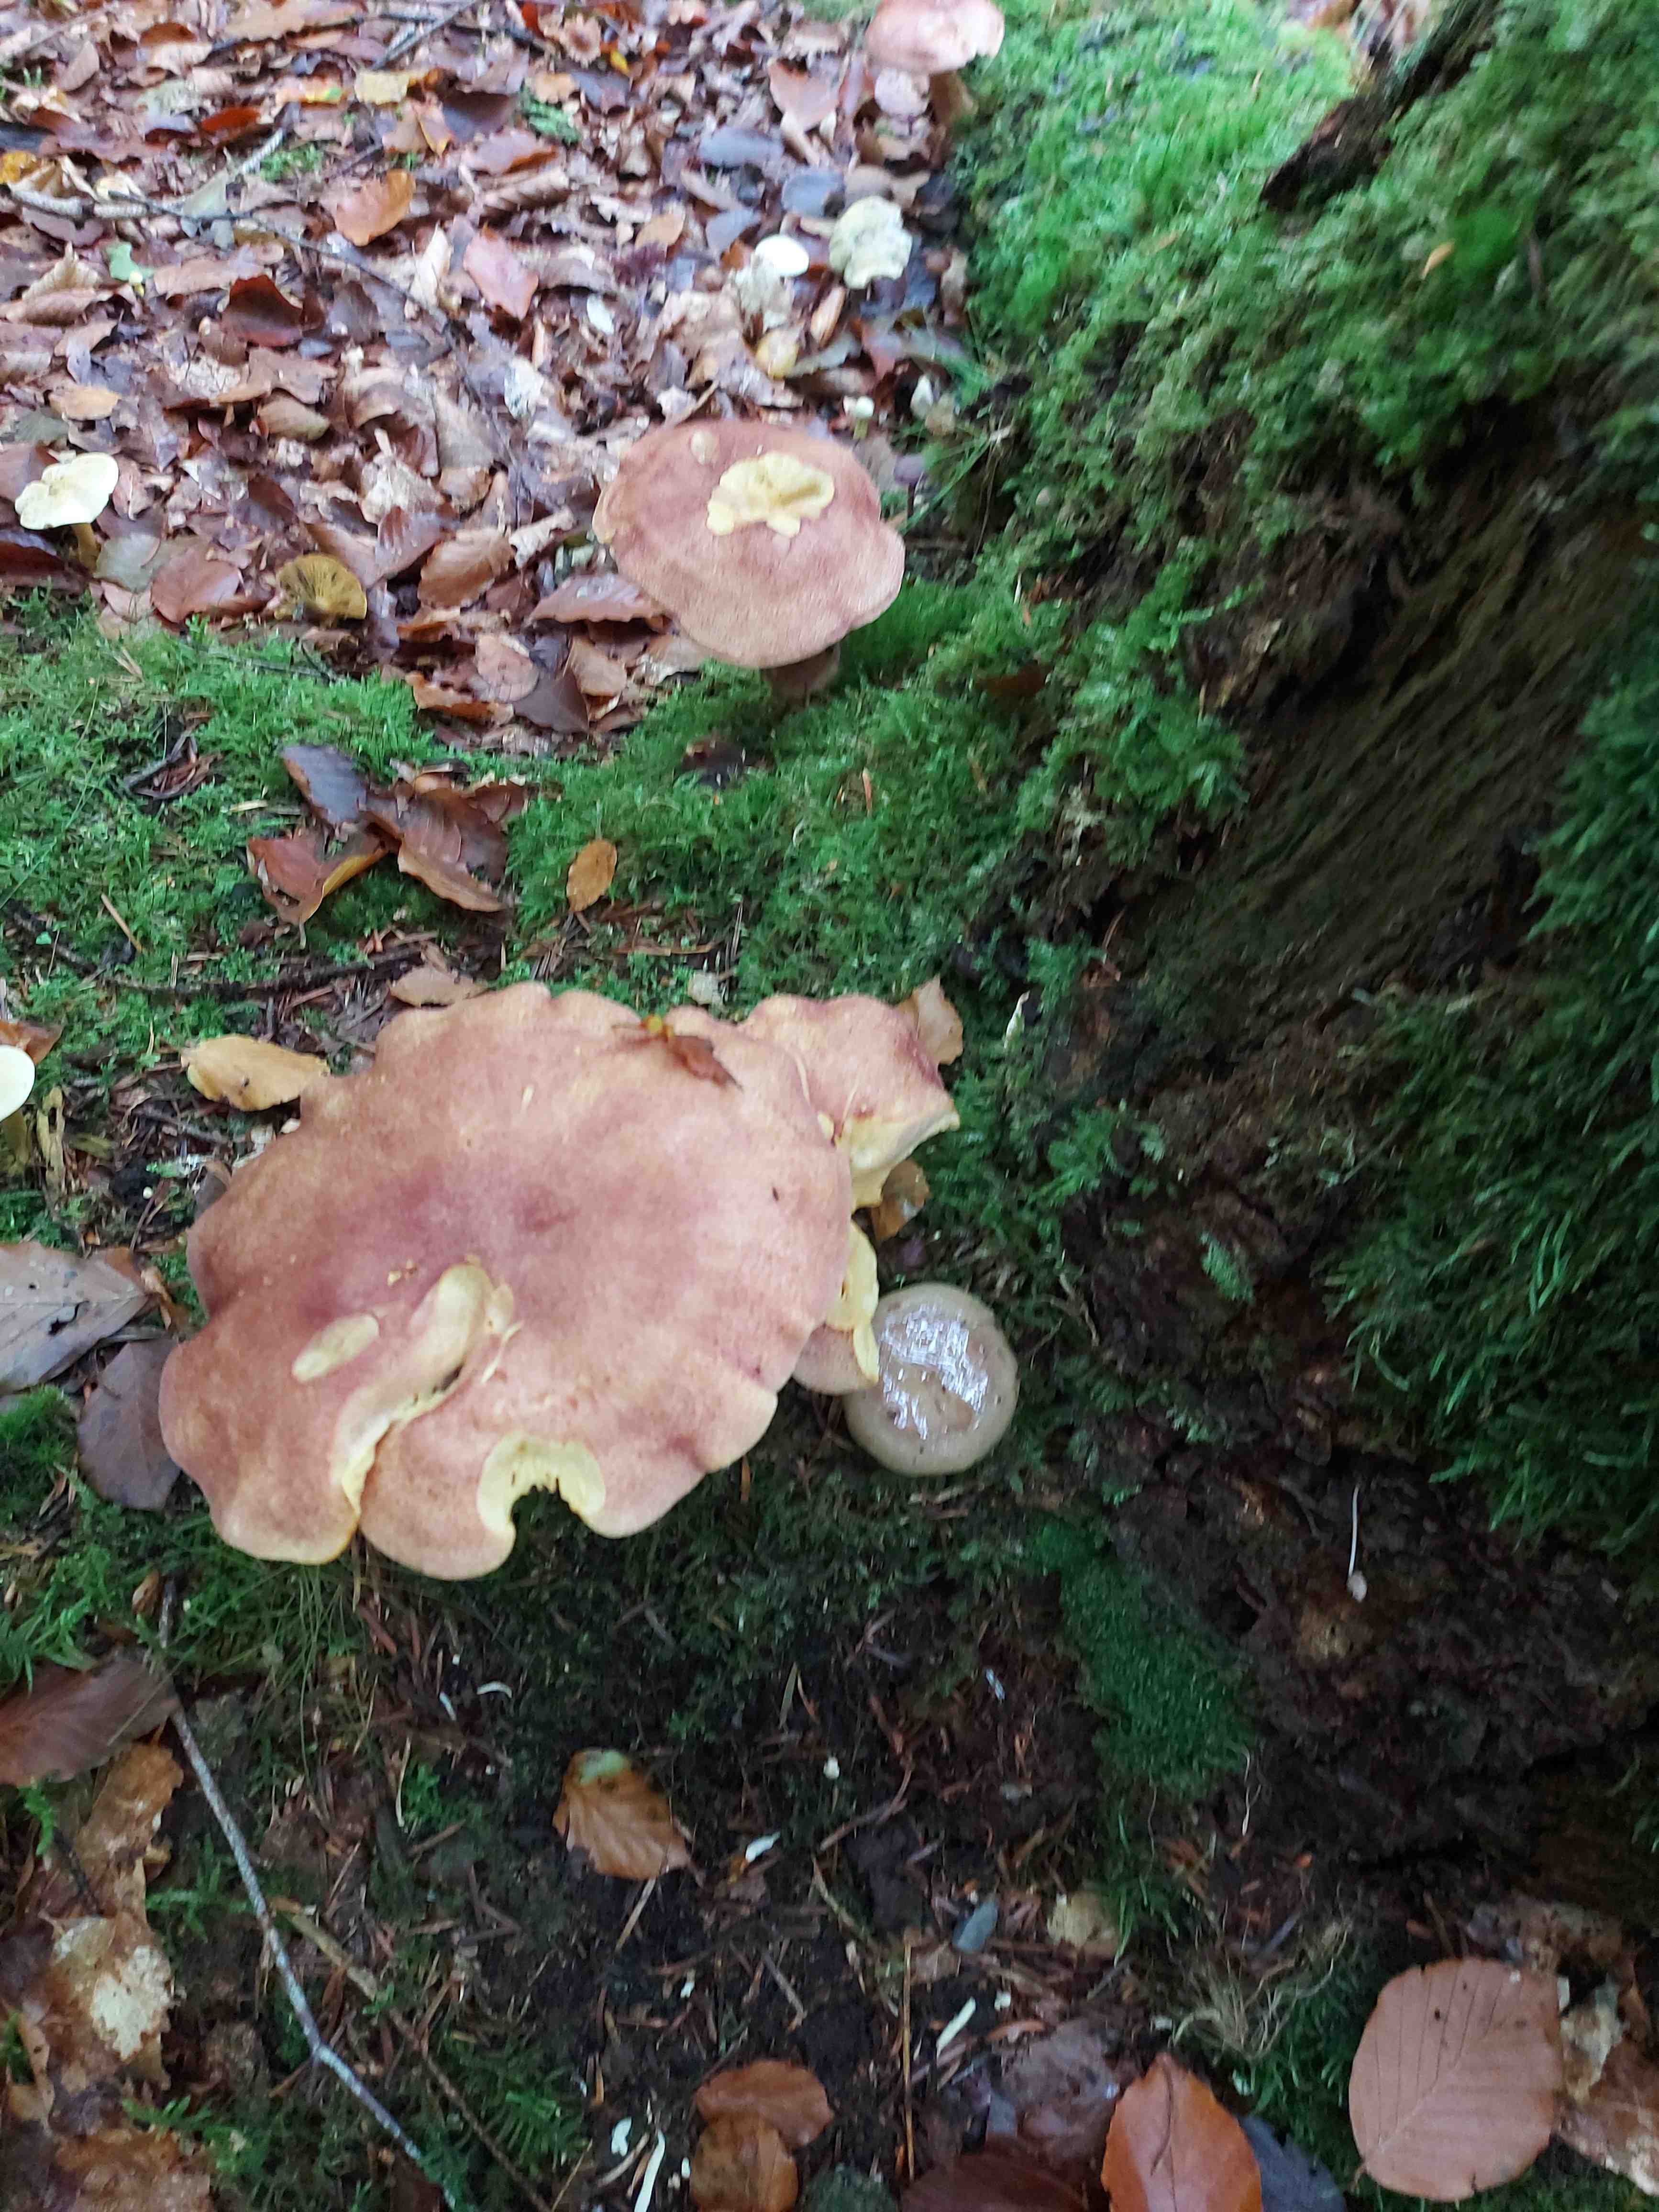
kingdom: Fungi
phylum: Basidiomycota
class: Agaricomycetes
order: Agaricales
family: Tricholomataceae
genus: Tricholomopsis
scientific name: Tricholomopsis rutilans
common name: purpur-væbnerhat
